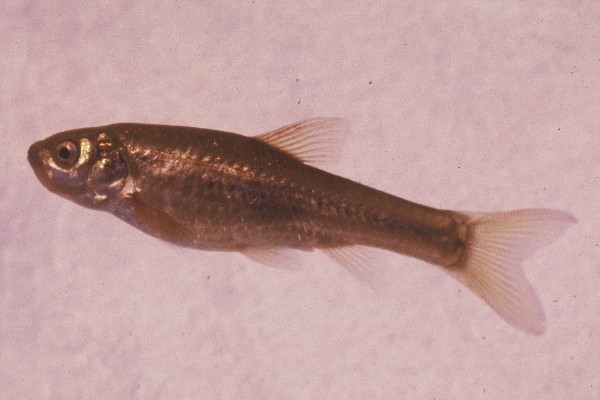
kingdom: Animalia
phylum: Chordata
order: Cypriniformes
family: Cyprinidae
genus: Enteromius
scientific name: Enteromius anoplus
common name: Chubbyhead barb
